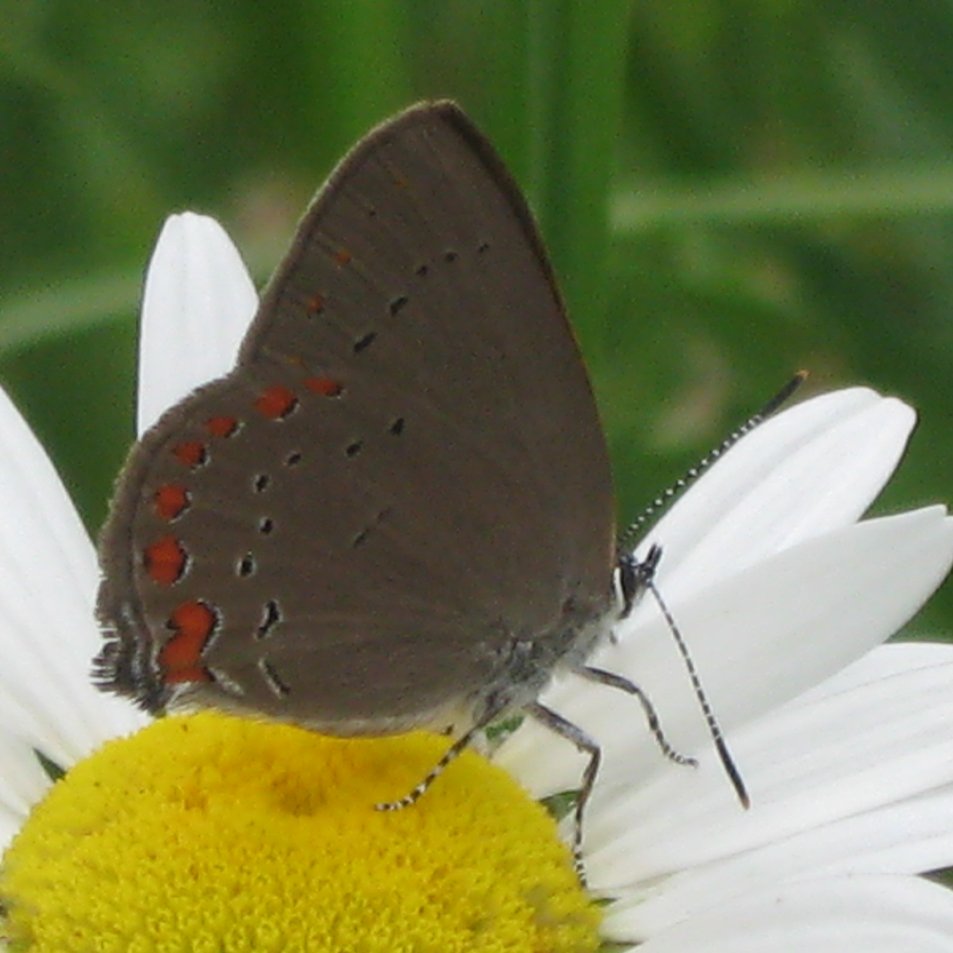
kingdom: Animalia
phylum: Arthropoda
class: Insecta
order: Lepidoptera
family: Lycaenidae
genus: Harkenclenus
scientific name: Harkenclenus titus
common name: Coral Hairstreak
